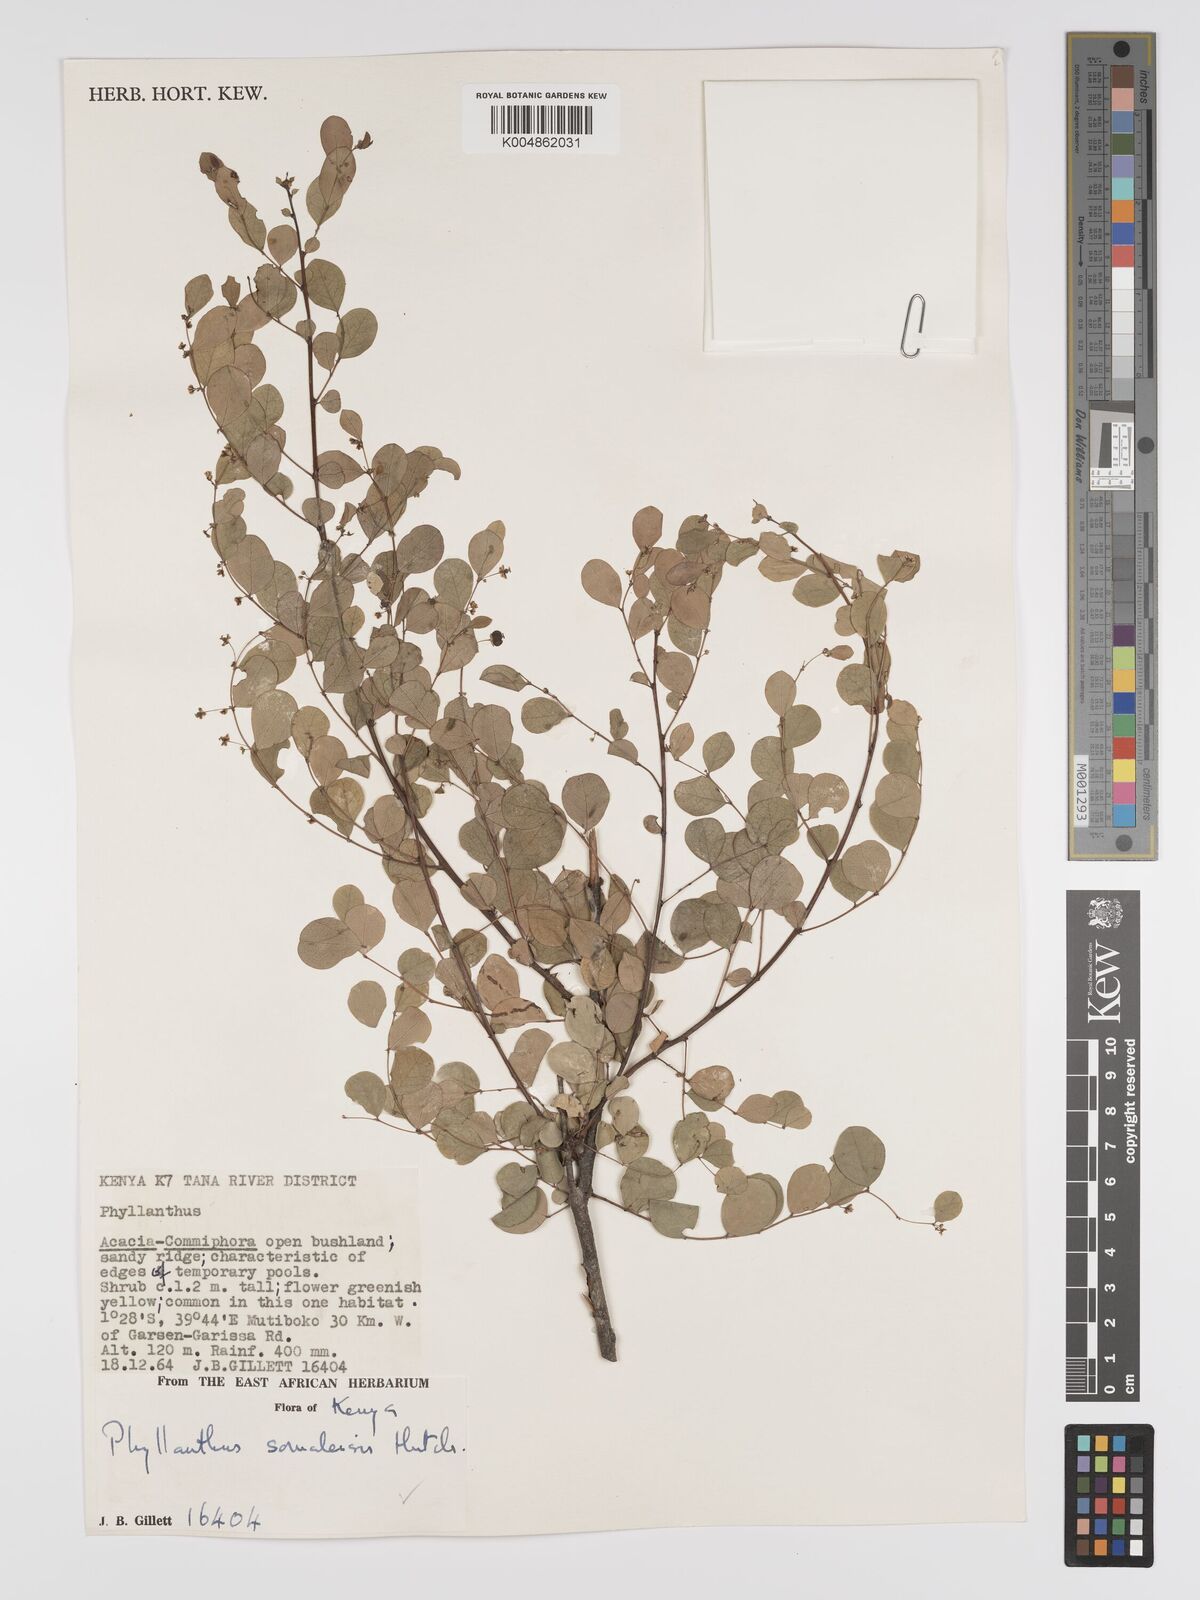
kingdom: Plantae
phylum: Tracheophyta
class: Magnoliopsida
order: Malpighiales
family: Phyllanthaceae
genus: Phyllanthus
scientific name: Phyllanthus somalensis
